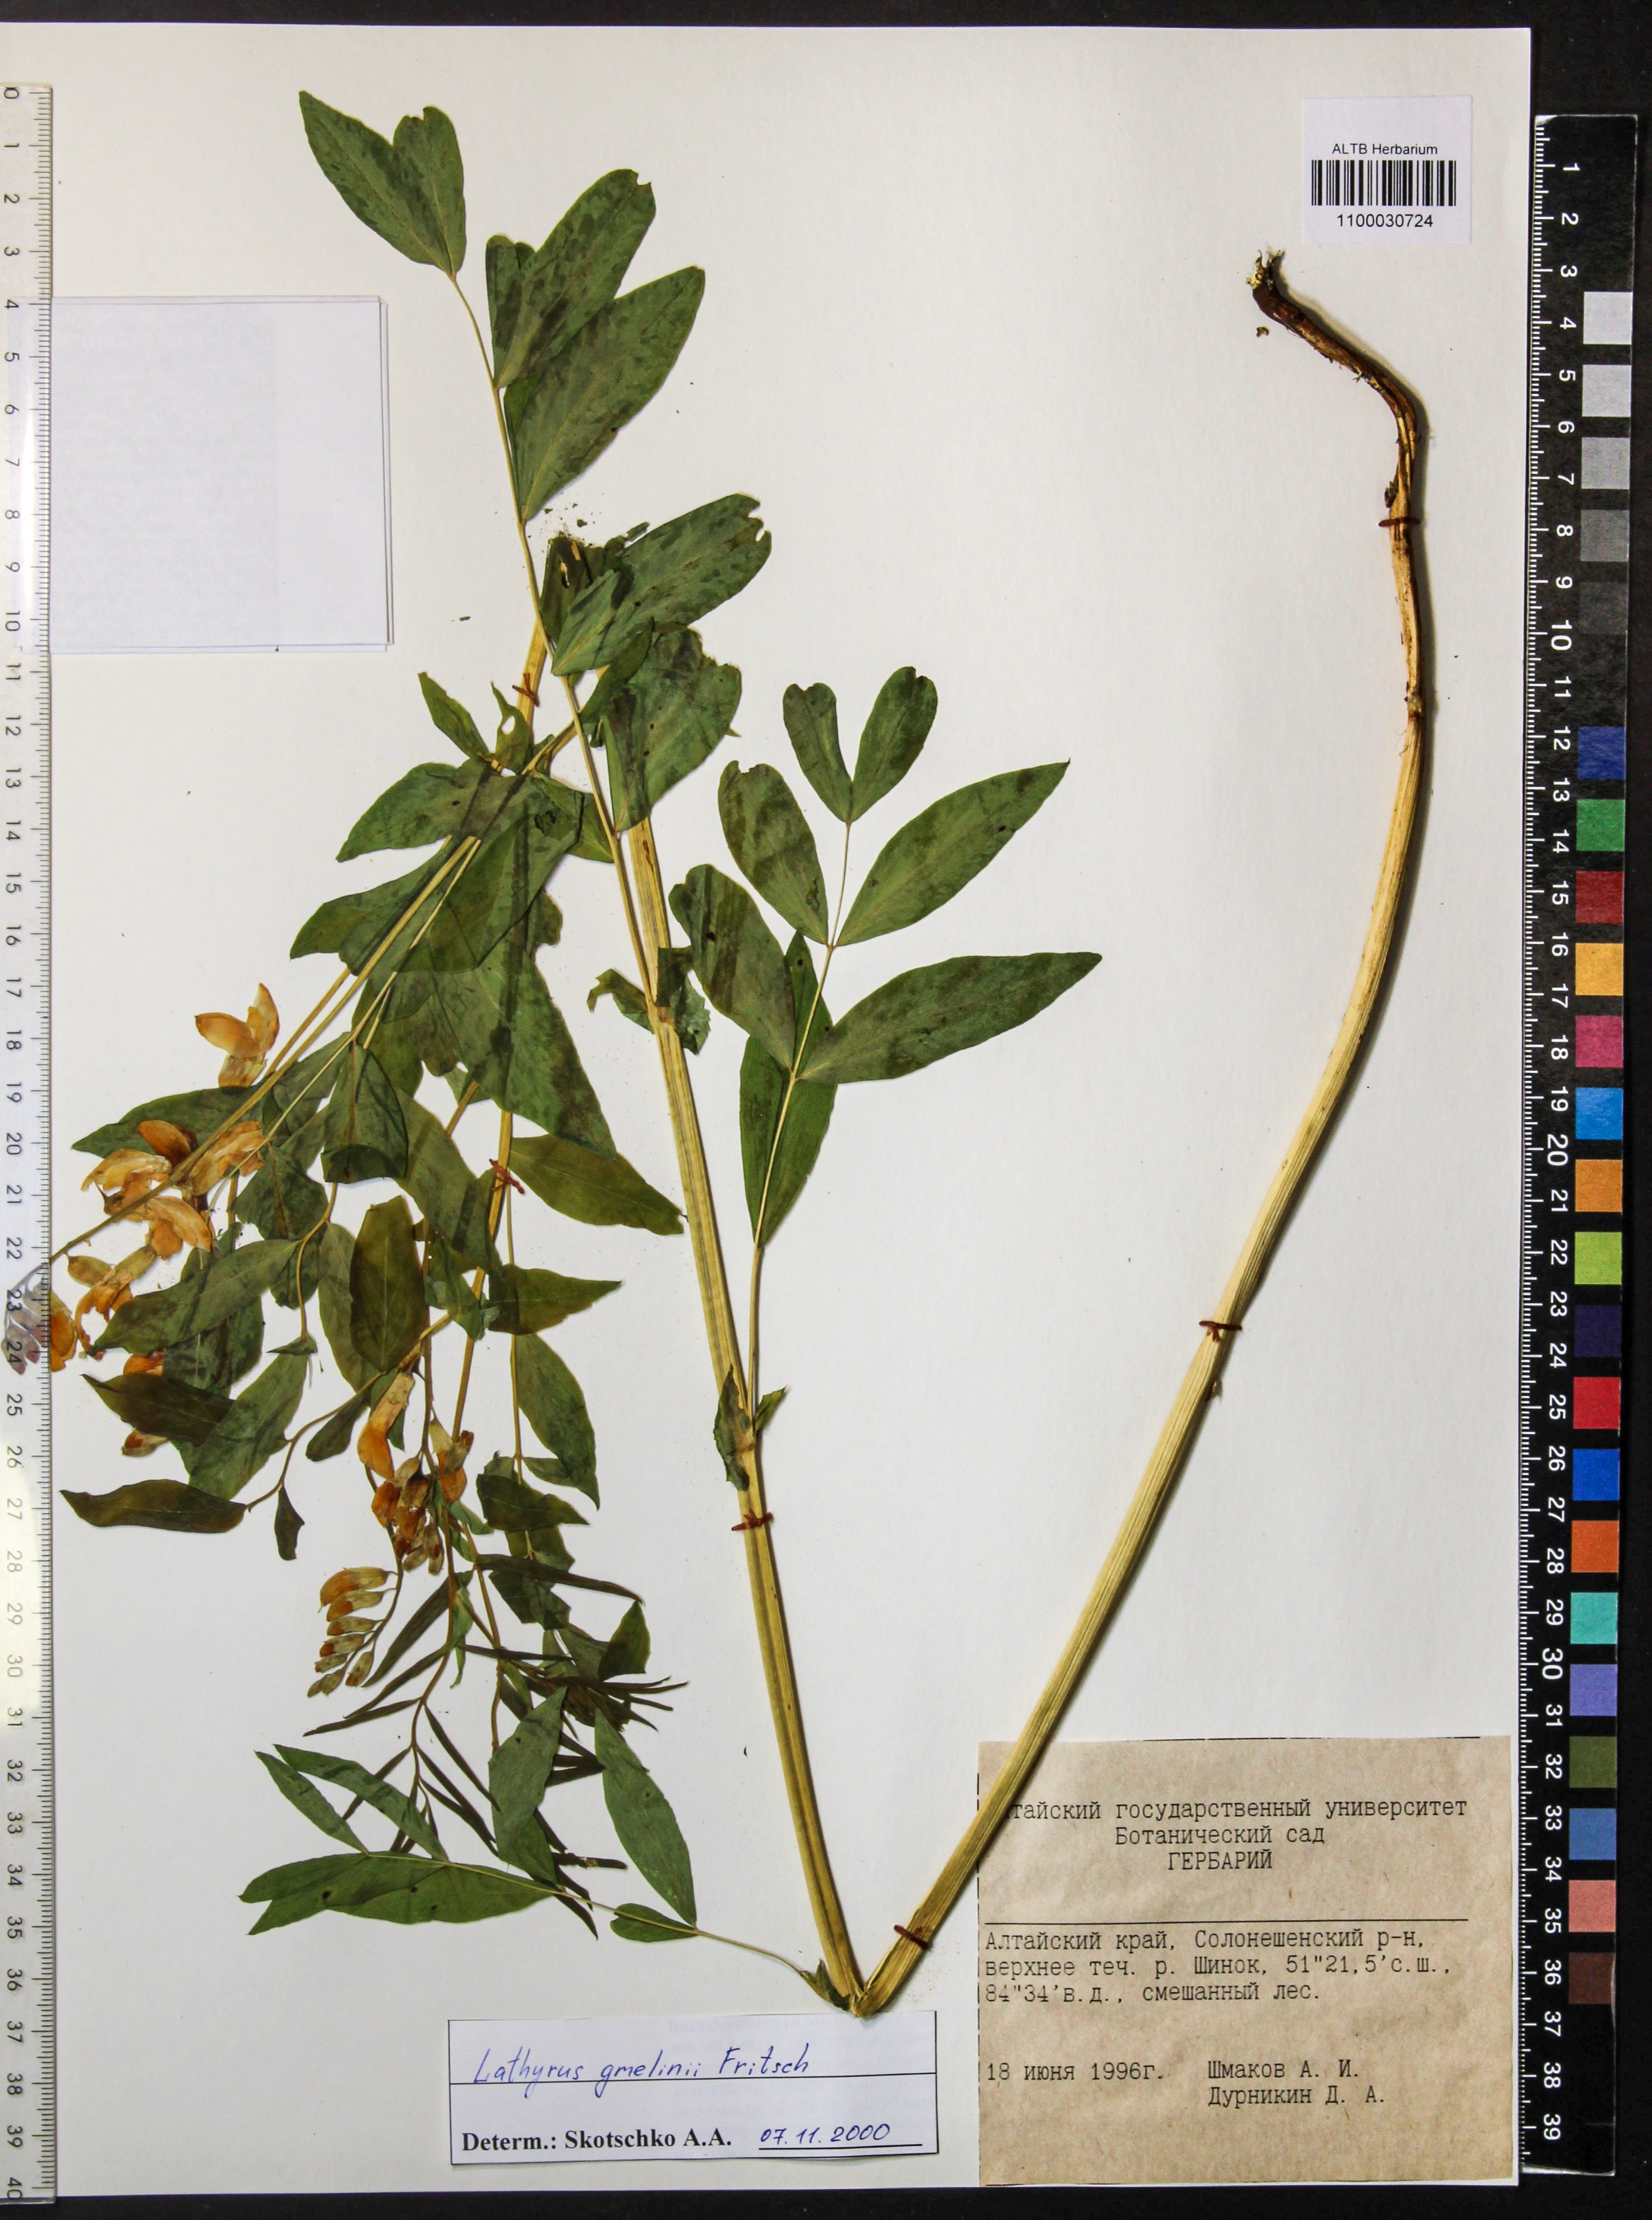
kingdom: Plantae
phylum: Tracheophyta
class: Magnoliopsida
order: Fabales
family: Fabaceae
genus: Lathyrus
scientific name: Lathyrus gmelinii
